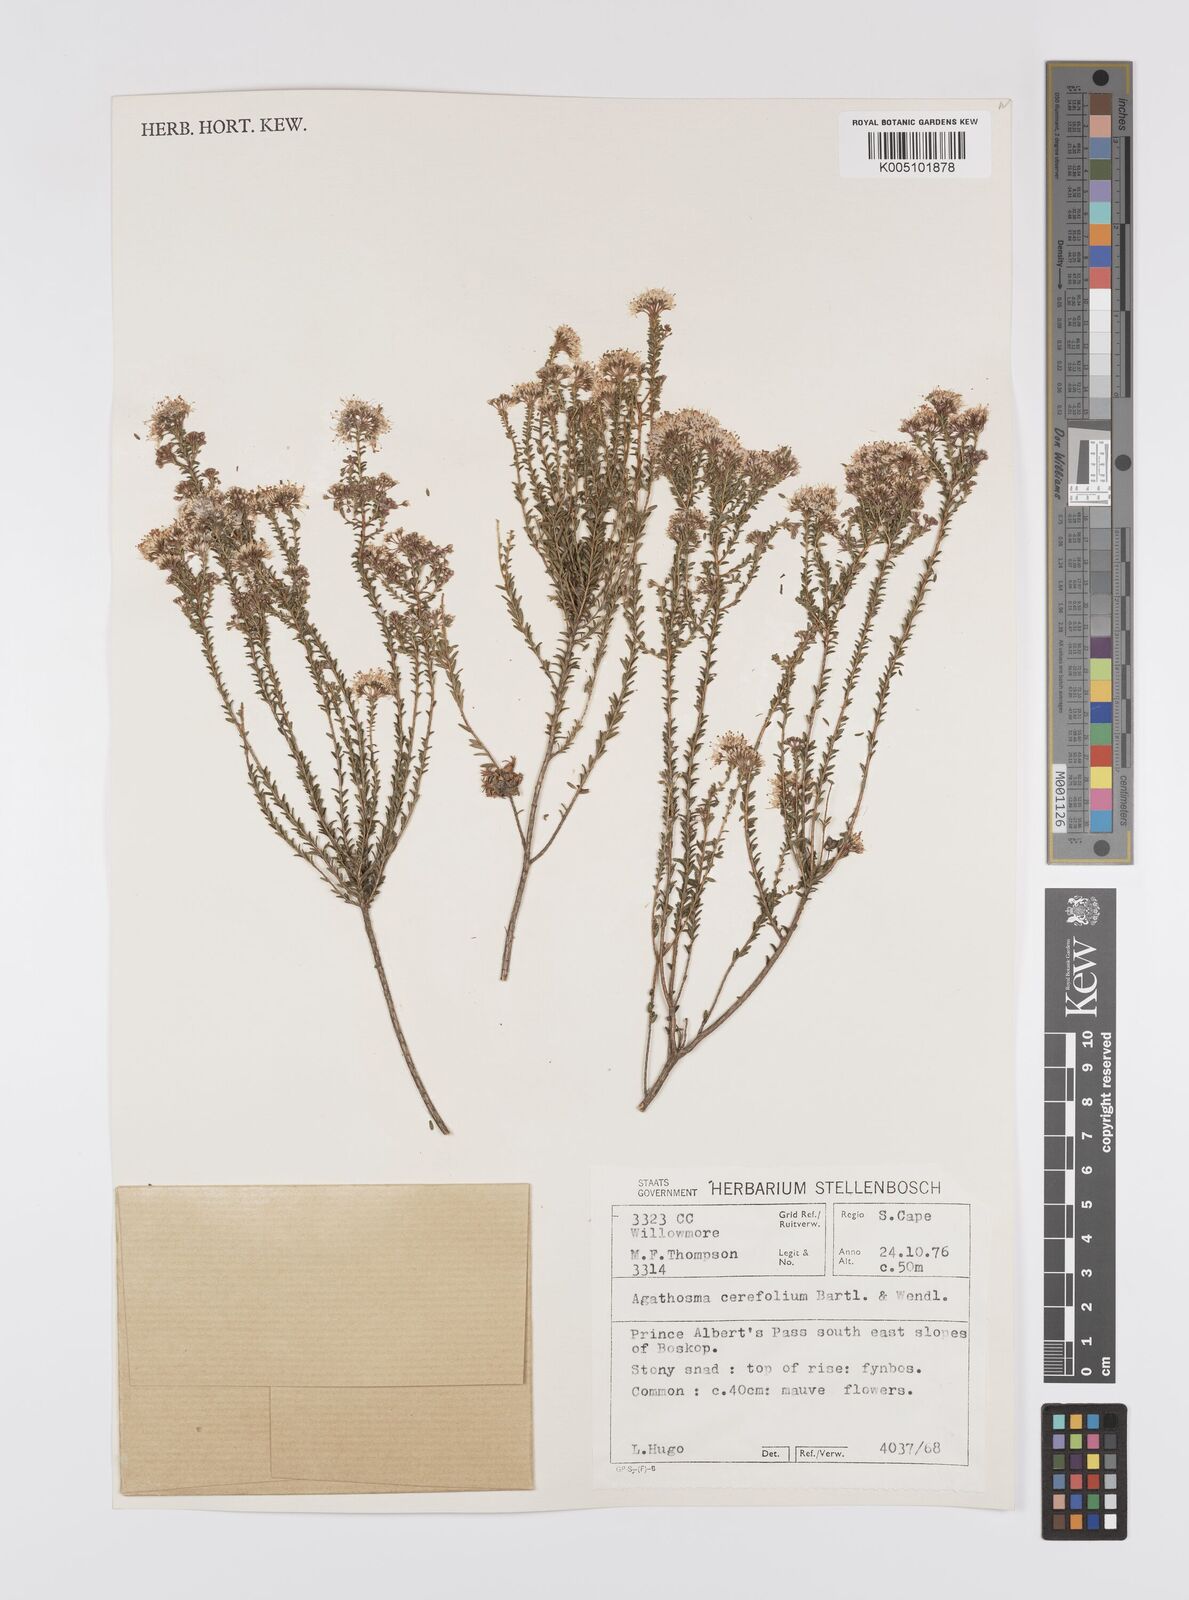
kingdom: Plantae
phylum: Tracheophyta
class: Magnoliopsida
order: Sapindales
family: Rutaceae
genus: Agathosma
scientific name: Agathosma cerefolia
